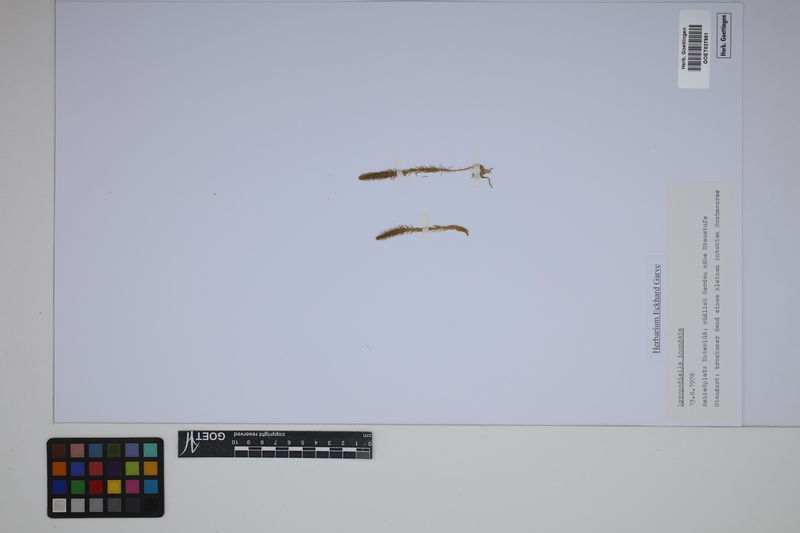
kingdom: Plantae
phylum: Tracheophyta
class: Lycopodiopsida
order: Lycopodiales
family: Lycopodiaceae
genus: Lycopodiella
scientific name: Lycopodiella inundata
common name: Marsh clubmoss
